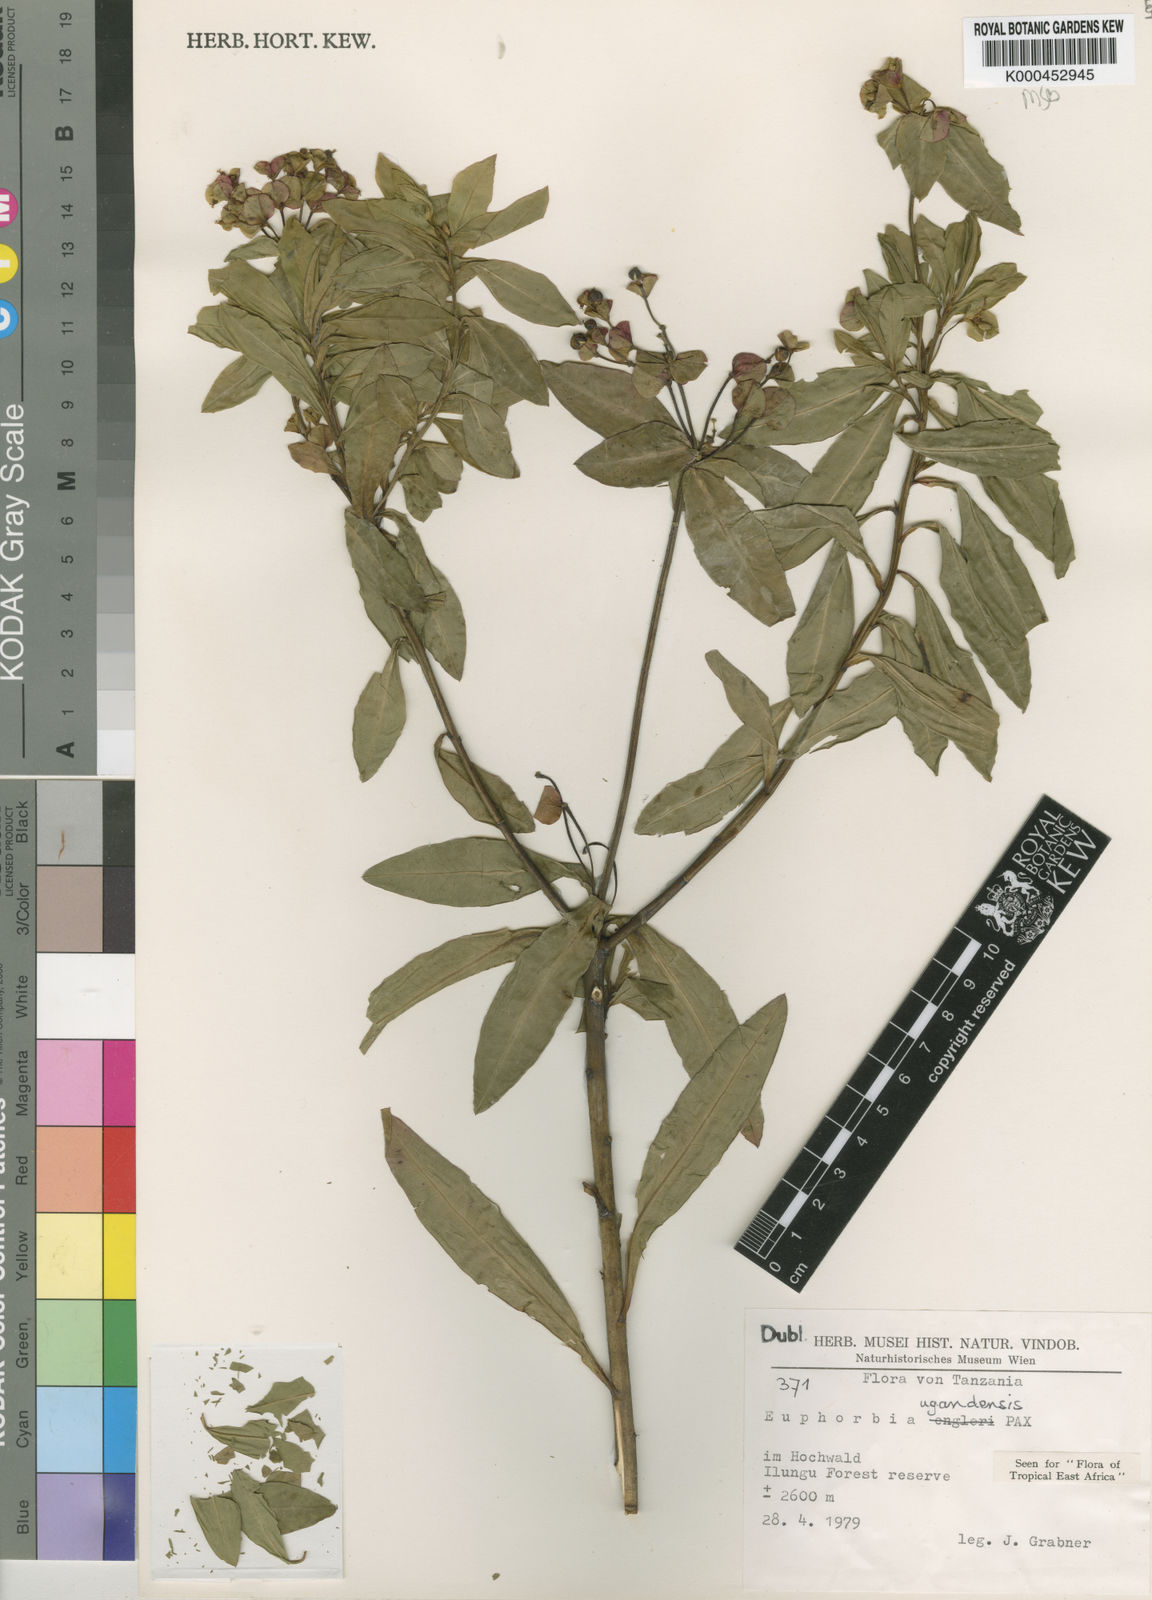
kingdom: Plantae
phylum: Tracheophyta
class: Magnoliopsida
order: Malpighiales
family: Euphorbiaceae
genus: Euphorbia
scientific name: Euphorbia ugandensis
